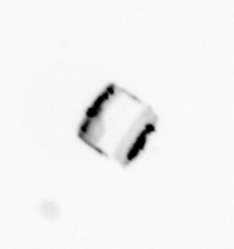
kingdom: Chromista
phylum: Ochrophyta
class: Bacillariophyceae
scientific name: Bacillariophyceae
